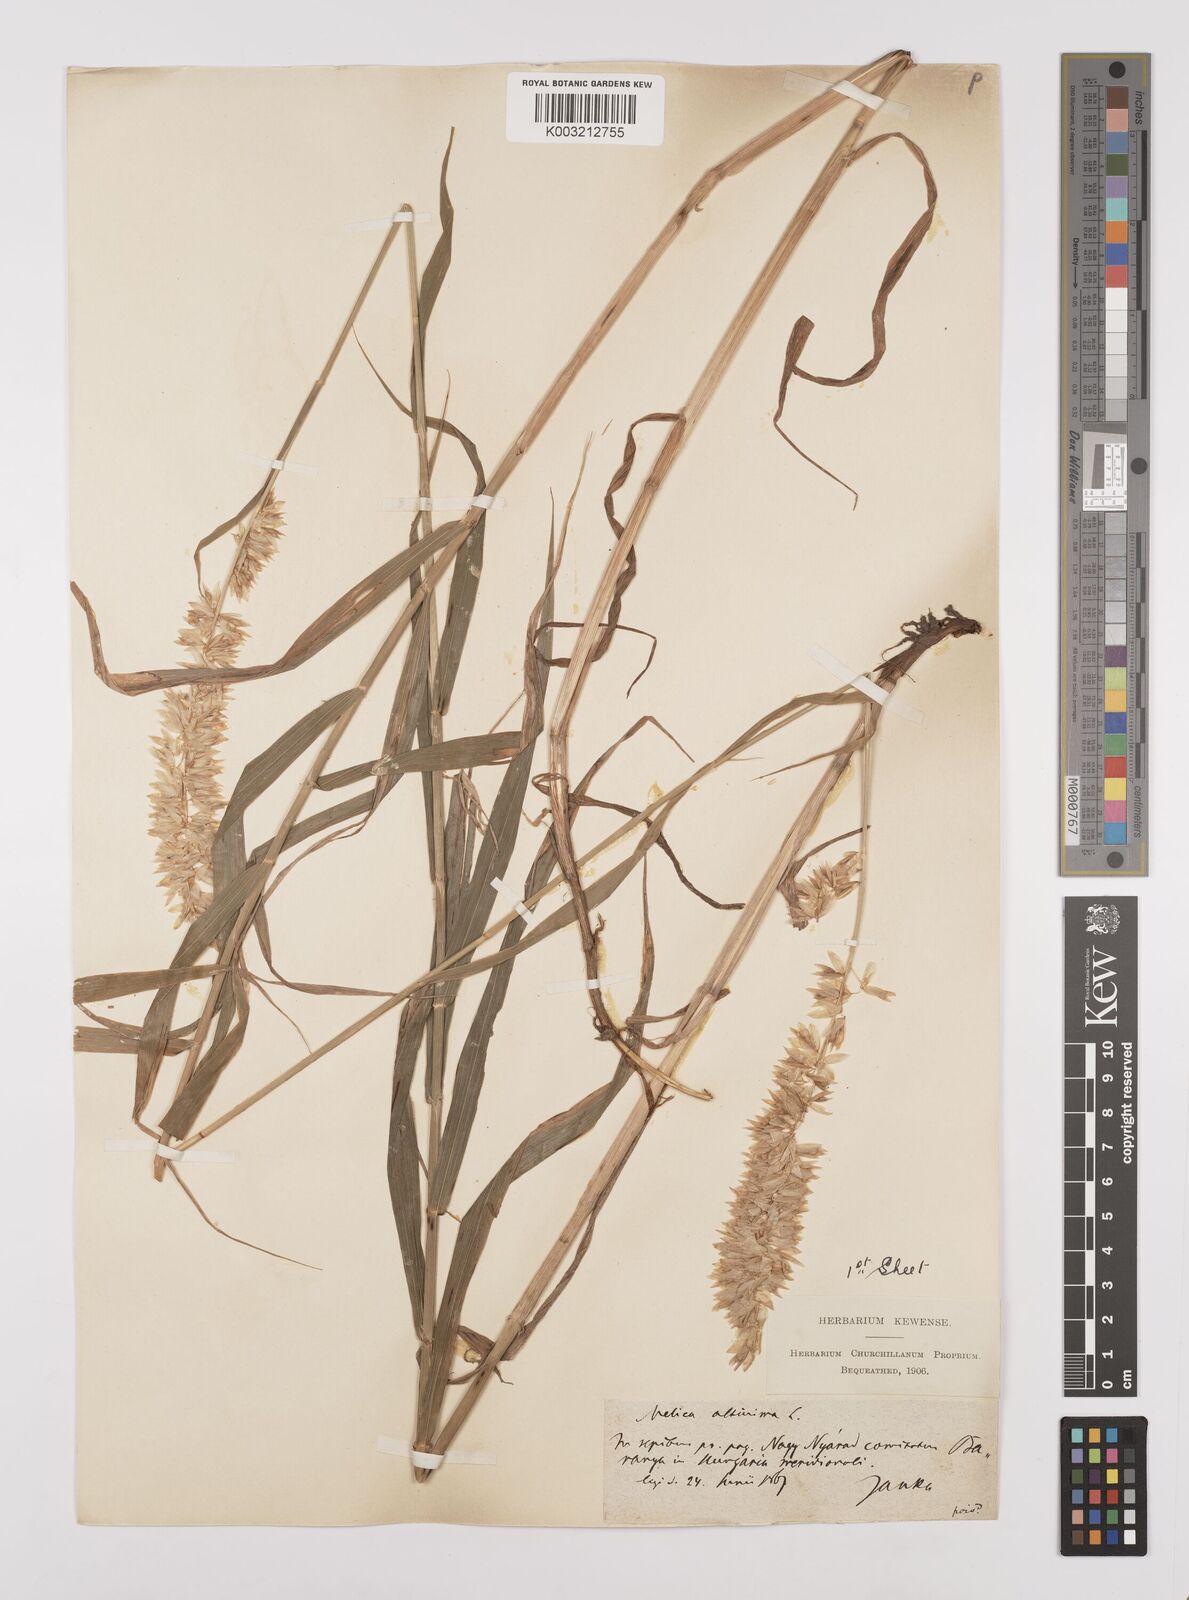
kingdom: Plantae
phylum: Tracheophyta
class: Liliopsida
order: Poales
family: Poaceae
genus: Melica
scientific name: Melica altissima
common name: Siberian melicgrass
